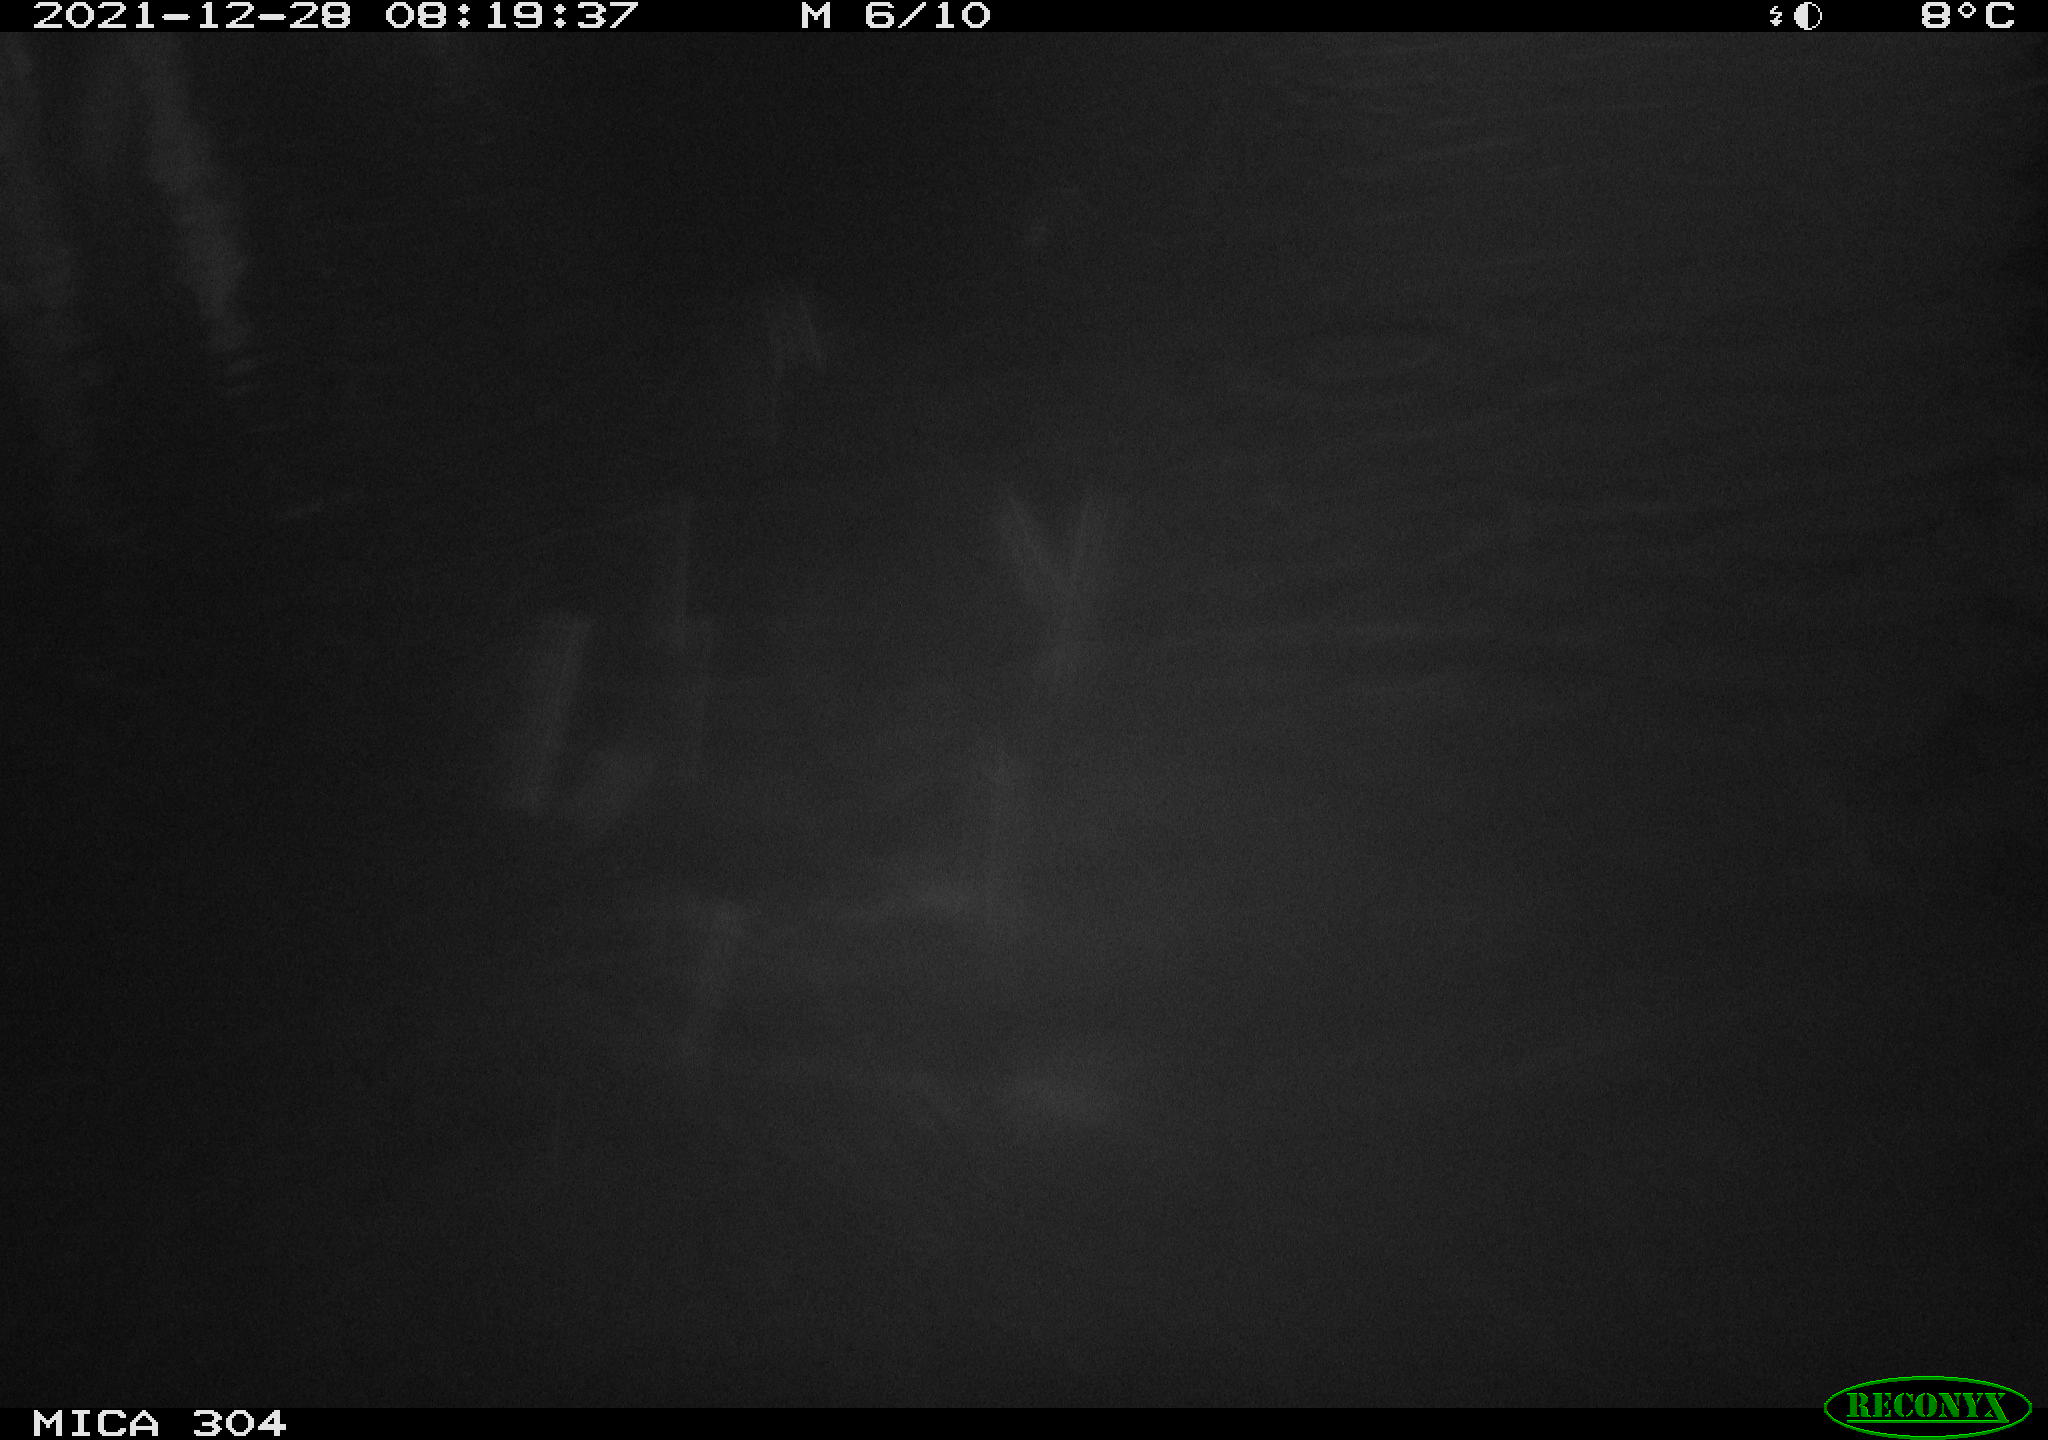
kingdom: Animalia
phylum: Chordata
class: Aves
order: Gruiformes
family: Rallidae
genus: Fulica
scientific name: Fulica atra
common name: Eurasian coot
